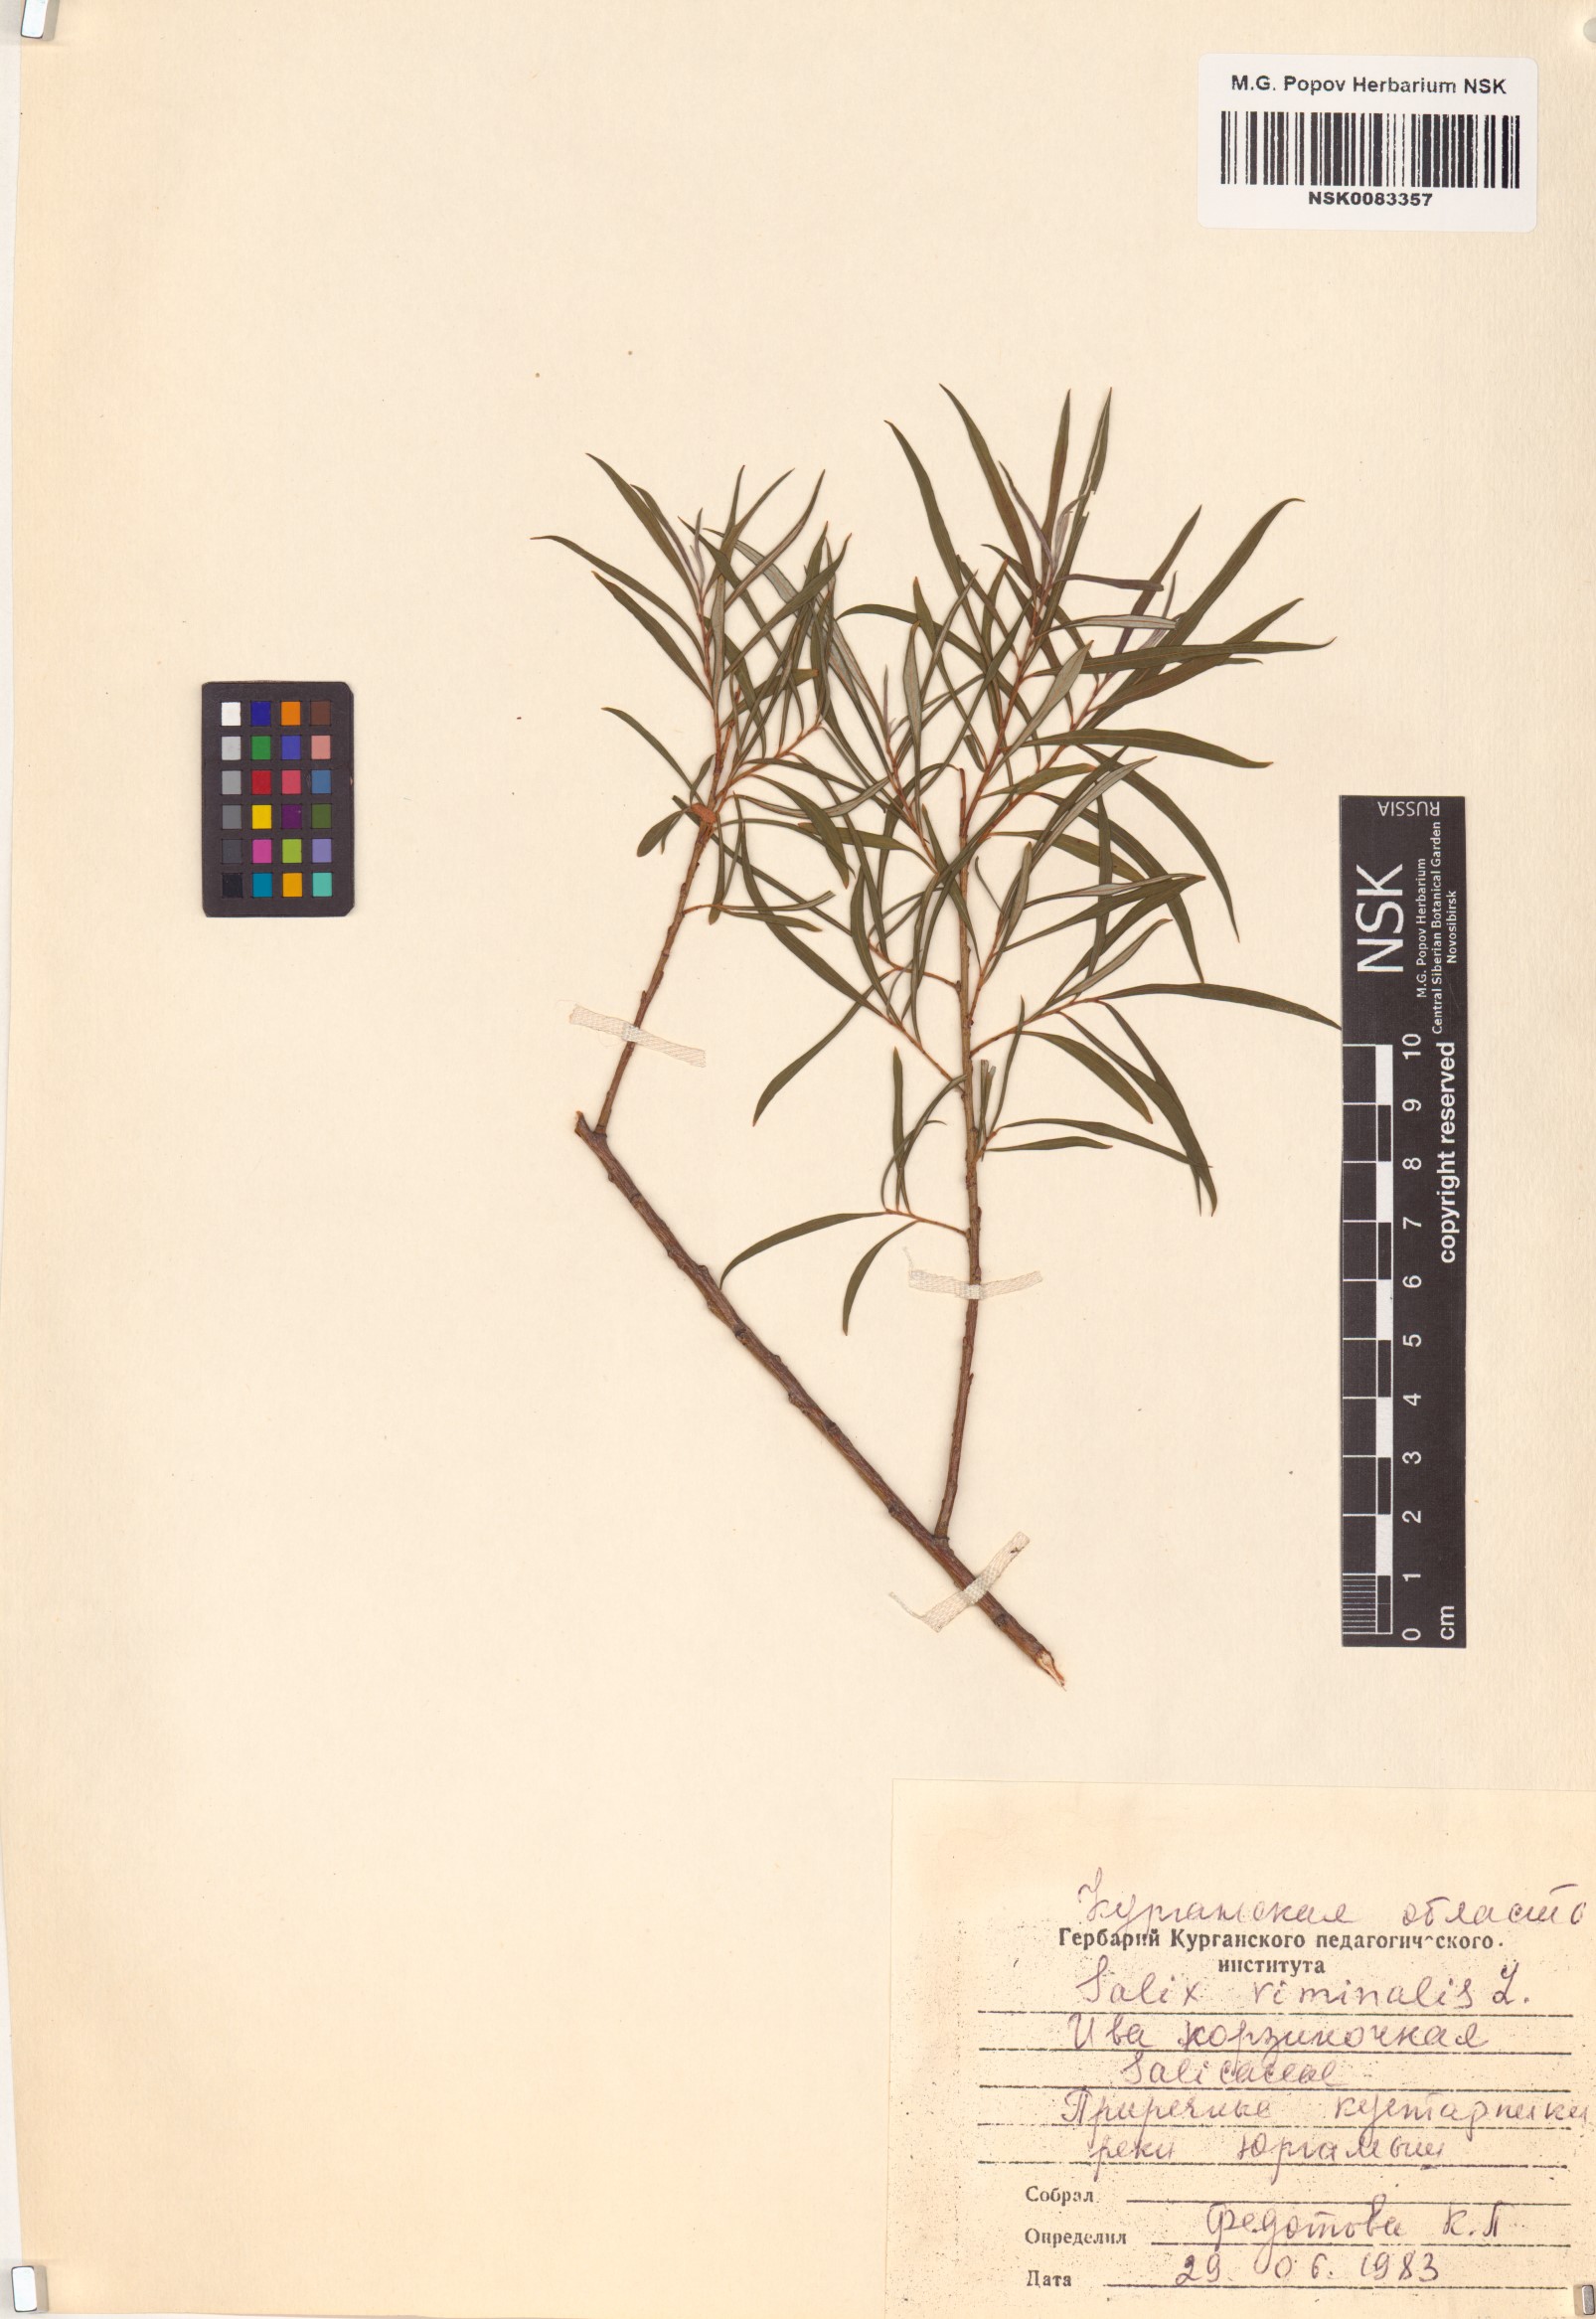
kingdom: Plantae
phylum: Tracheophyta
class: Magnoliopsida
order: Malpighiales
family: Salicaceae
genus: Salix
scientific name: Salix viminalis
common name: Osier
